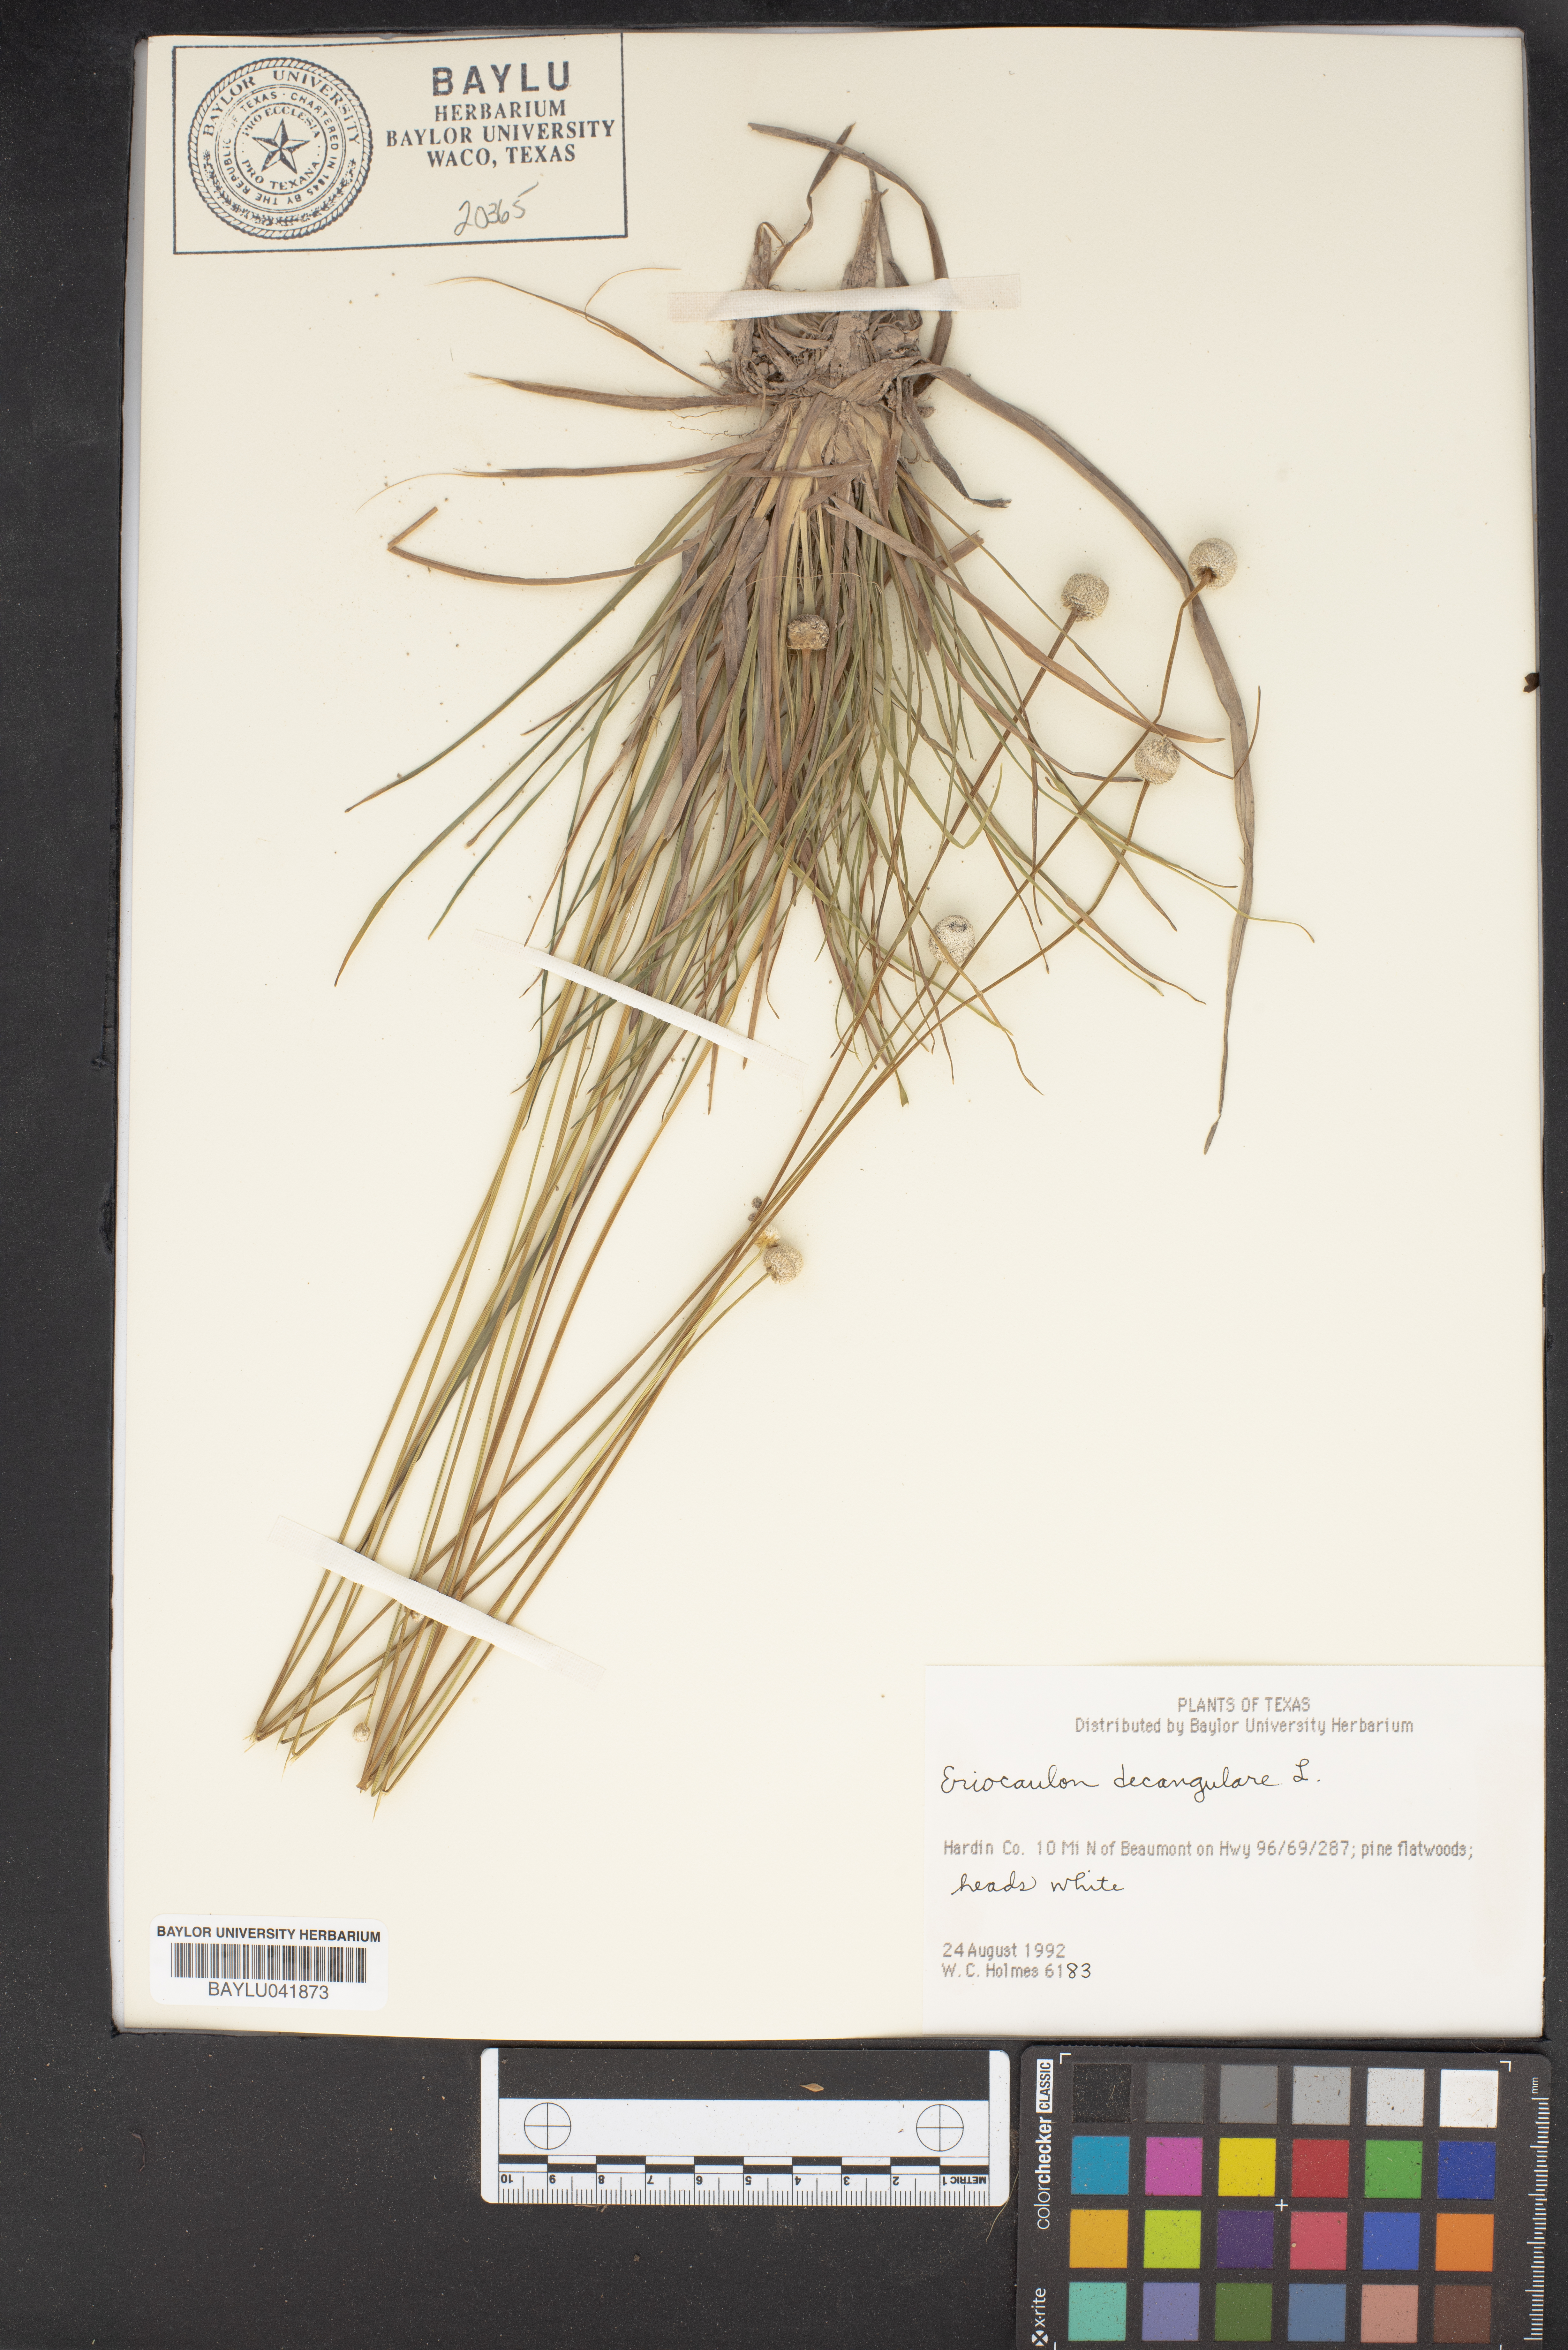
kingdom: Plantae
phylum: Tracheophyta
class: Liliopsida
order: Poales
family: Eriocaulaceae
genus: Eriocaulon
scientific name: Eriocaulon decangulare
